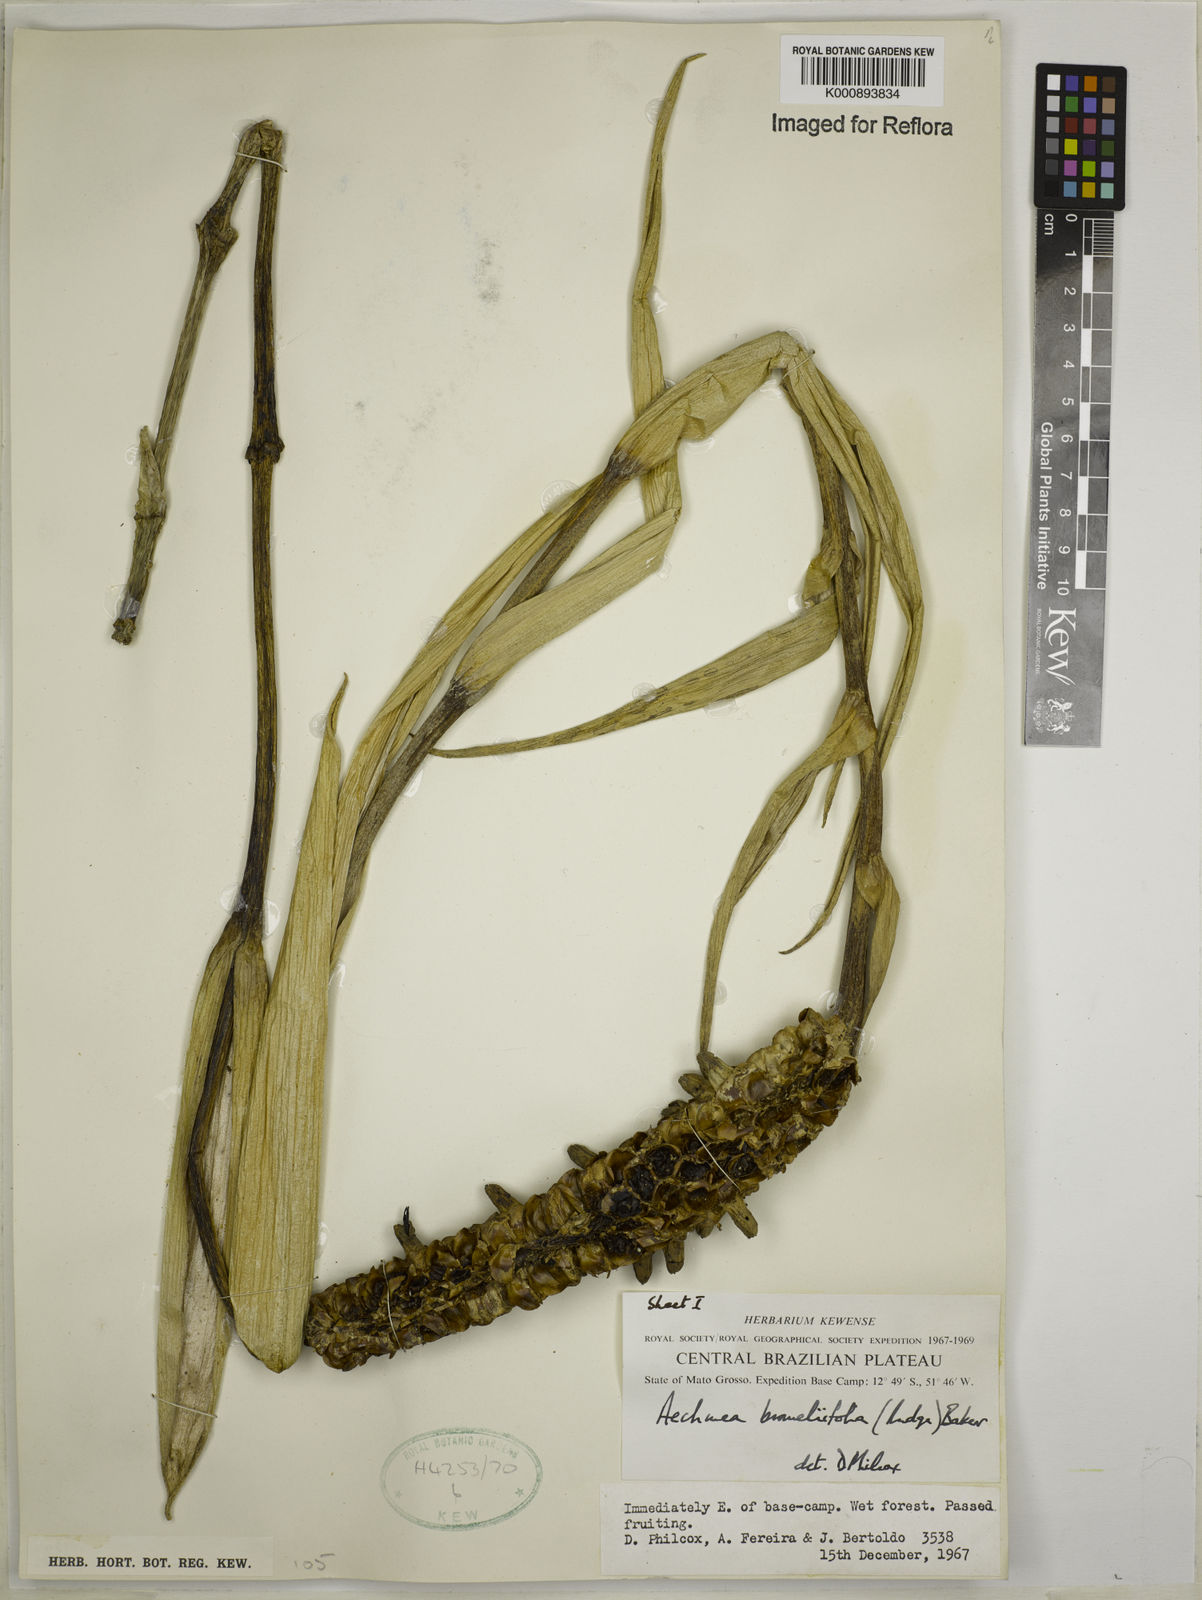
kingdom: Plantae
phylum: Tracheophyta
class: Liliopsida
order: Poales
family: Bromeliaceae
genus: Aechmea
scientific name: Aechmea
